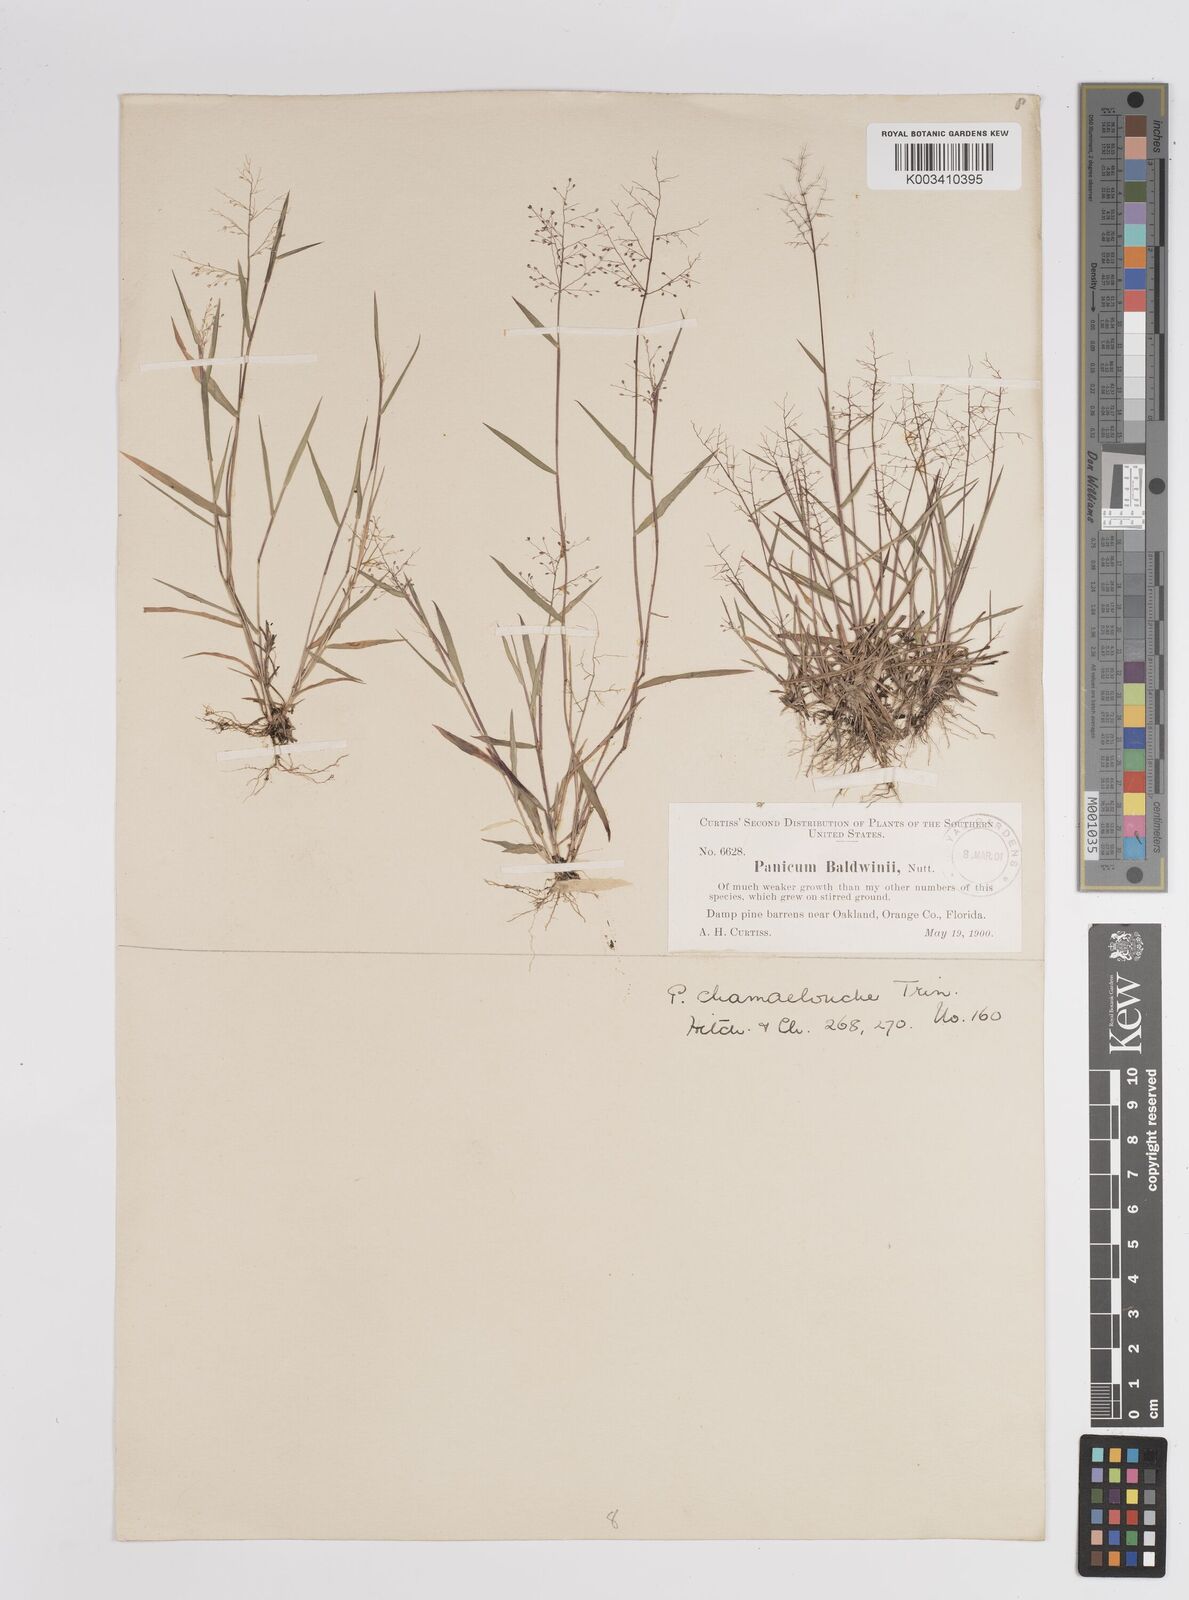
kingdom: Plantae
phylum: Tracheophyta
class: Liliopsida
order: Poales
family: Poaceae
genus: Dichanthelium
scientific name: Dichanthelium chamaelonche
